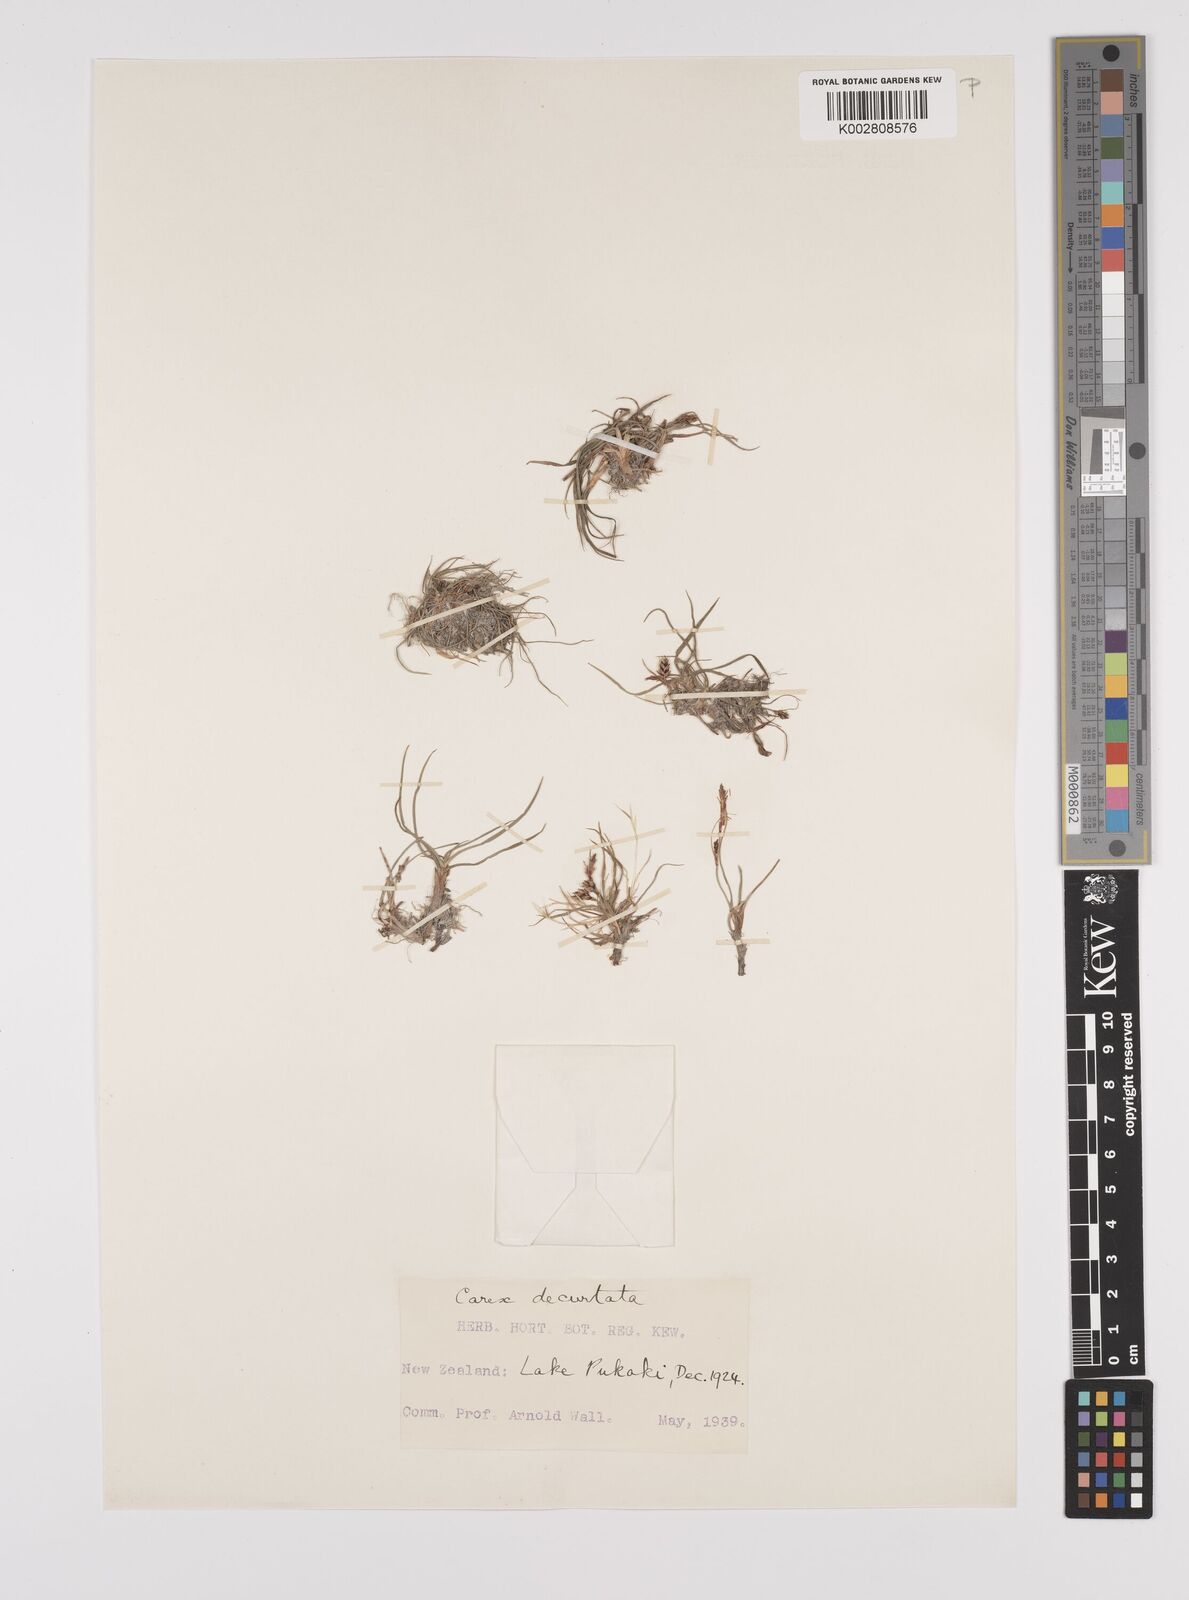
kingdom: Plantae
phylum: Tracheophyta
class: Liliopsida
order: Poales
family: Cyperaceae
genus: Carex
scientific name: Carex decurtata
